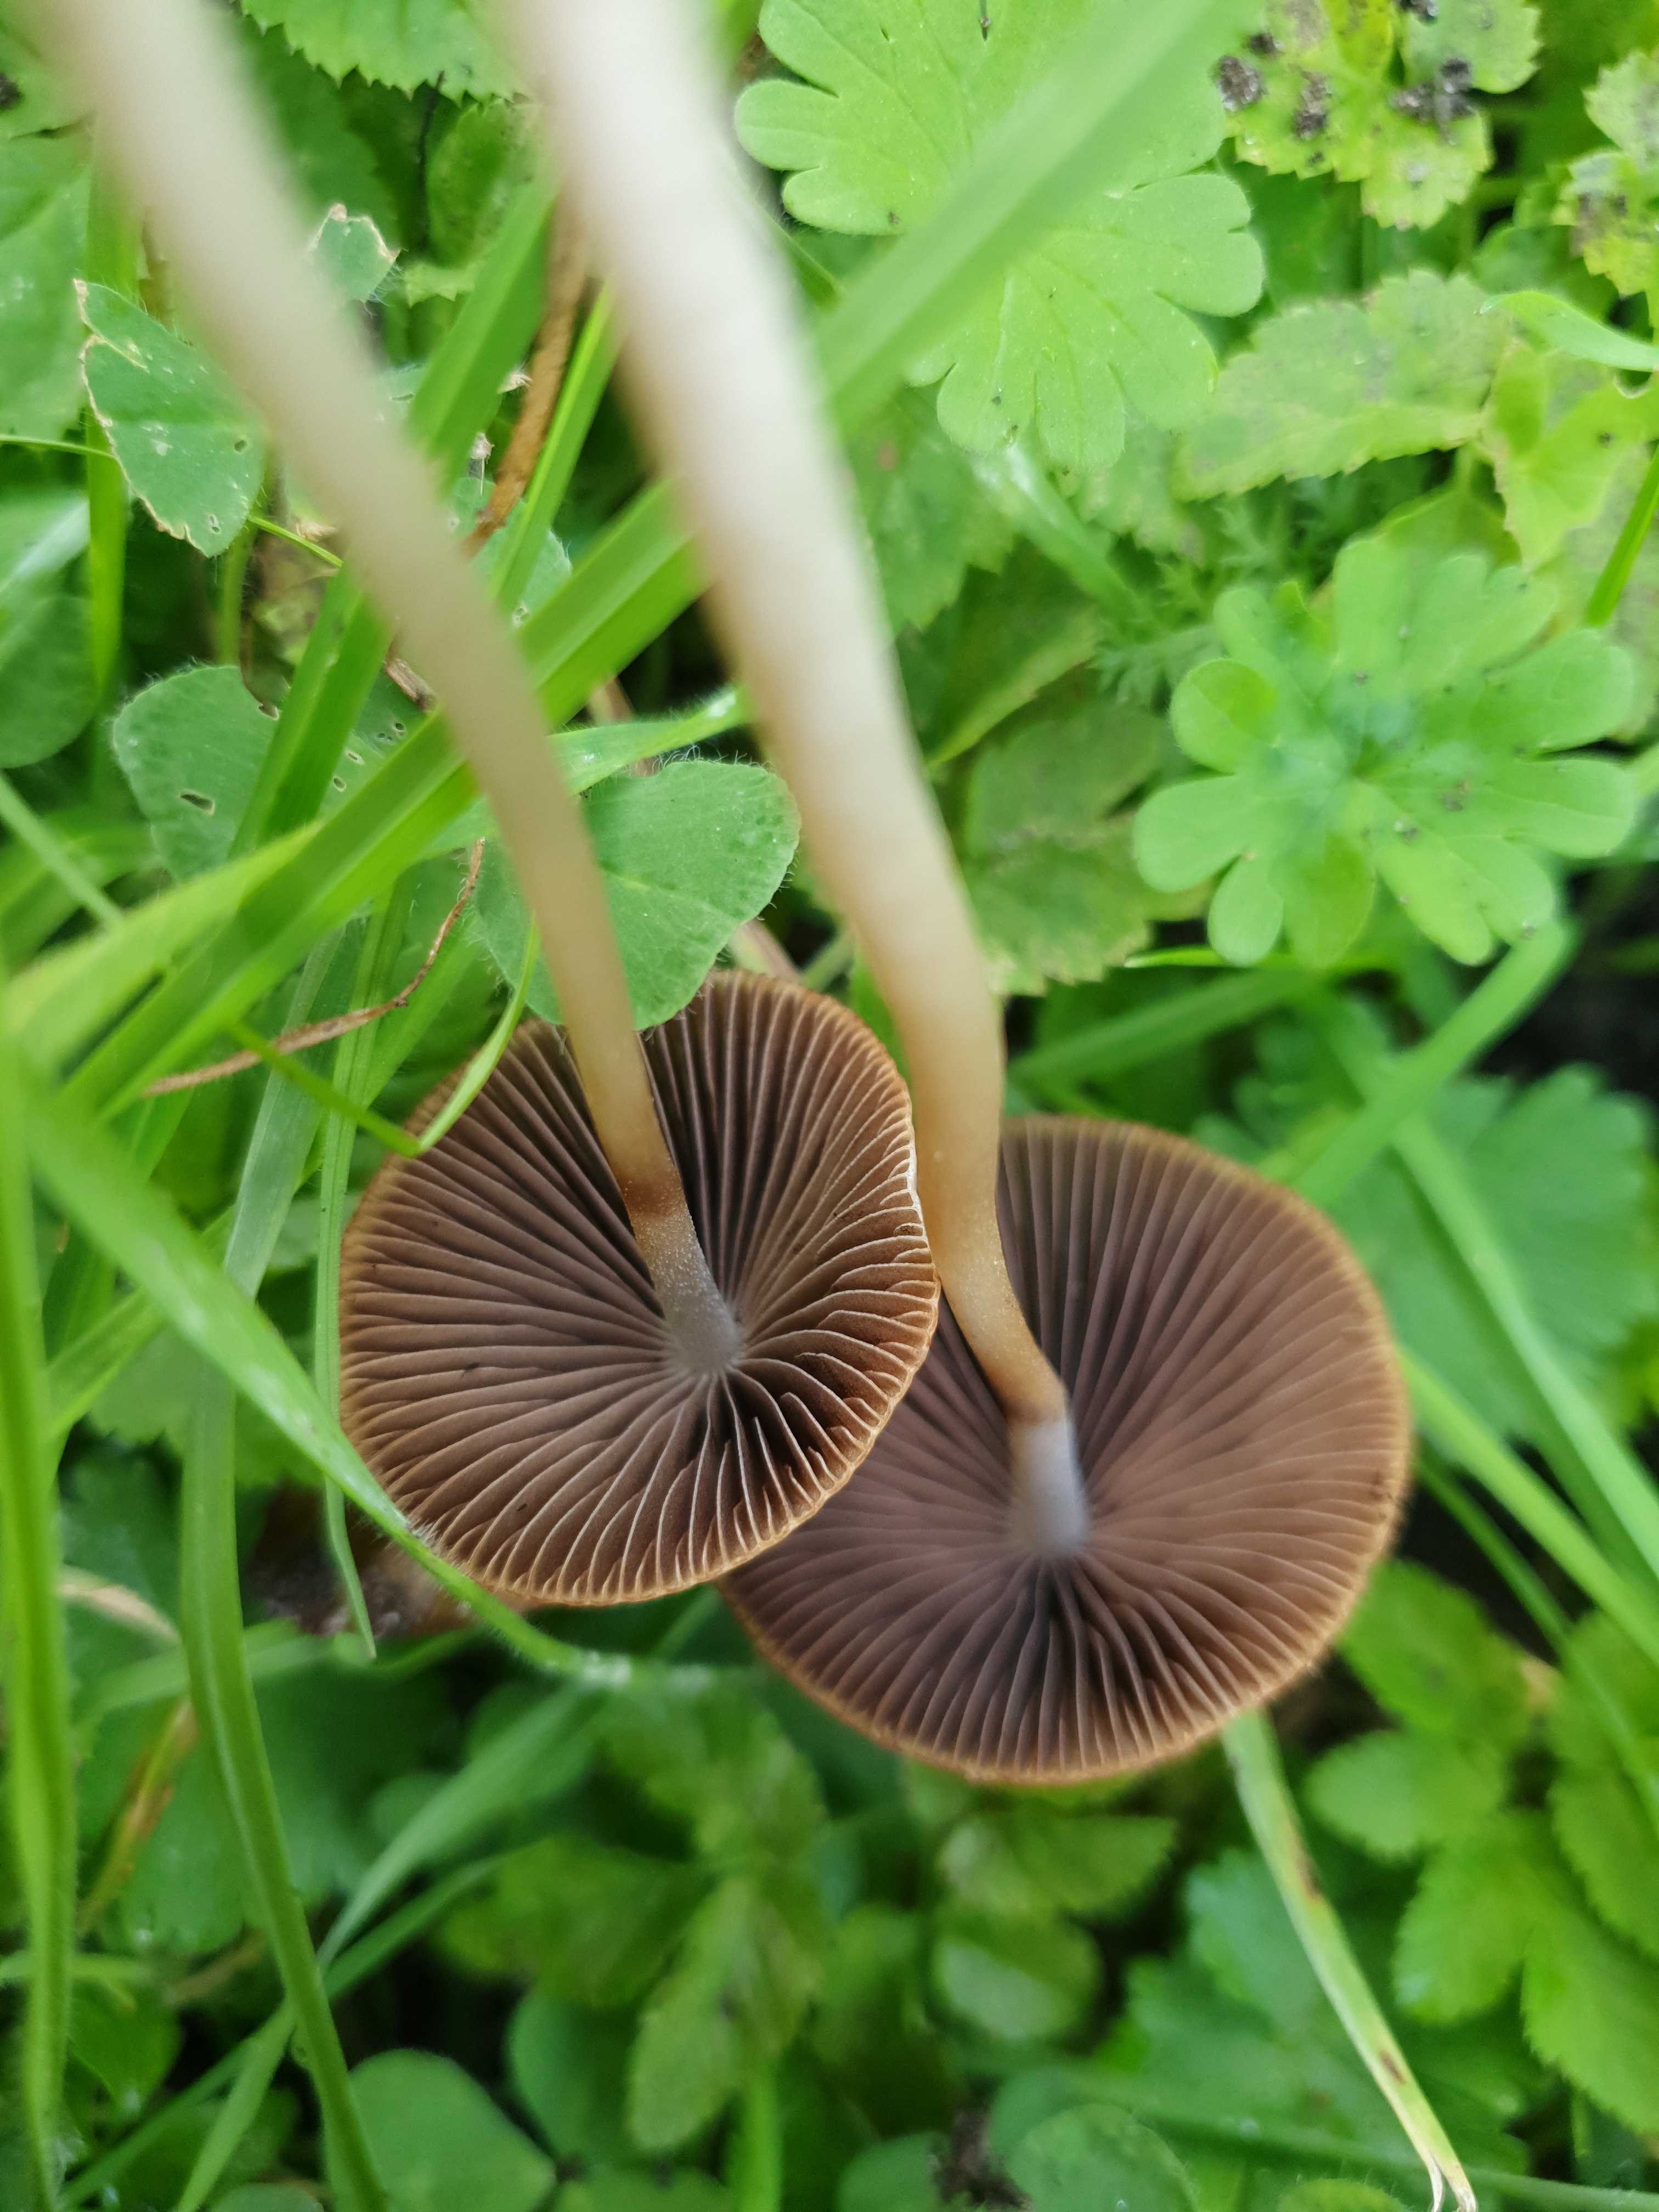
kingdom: Fungi
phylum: Basidiomycota
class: Agaricomycetes
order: Agaricales
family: Psathyrellaceae
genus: Psathyrella
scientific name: Psathyrella
